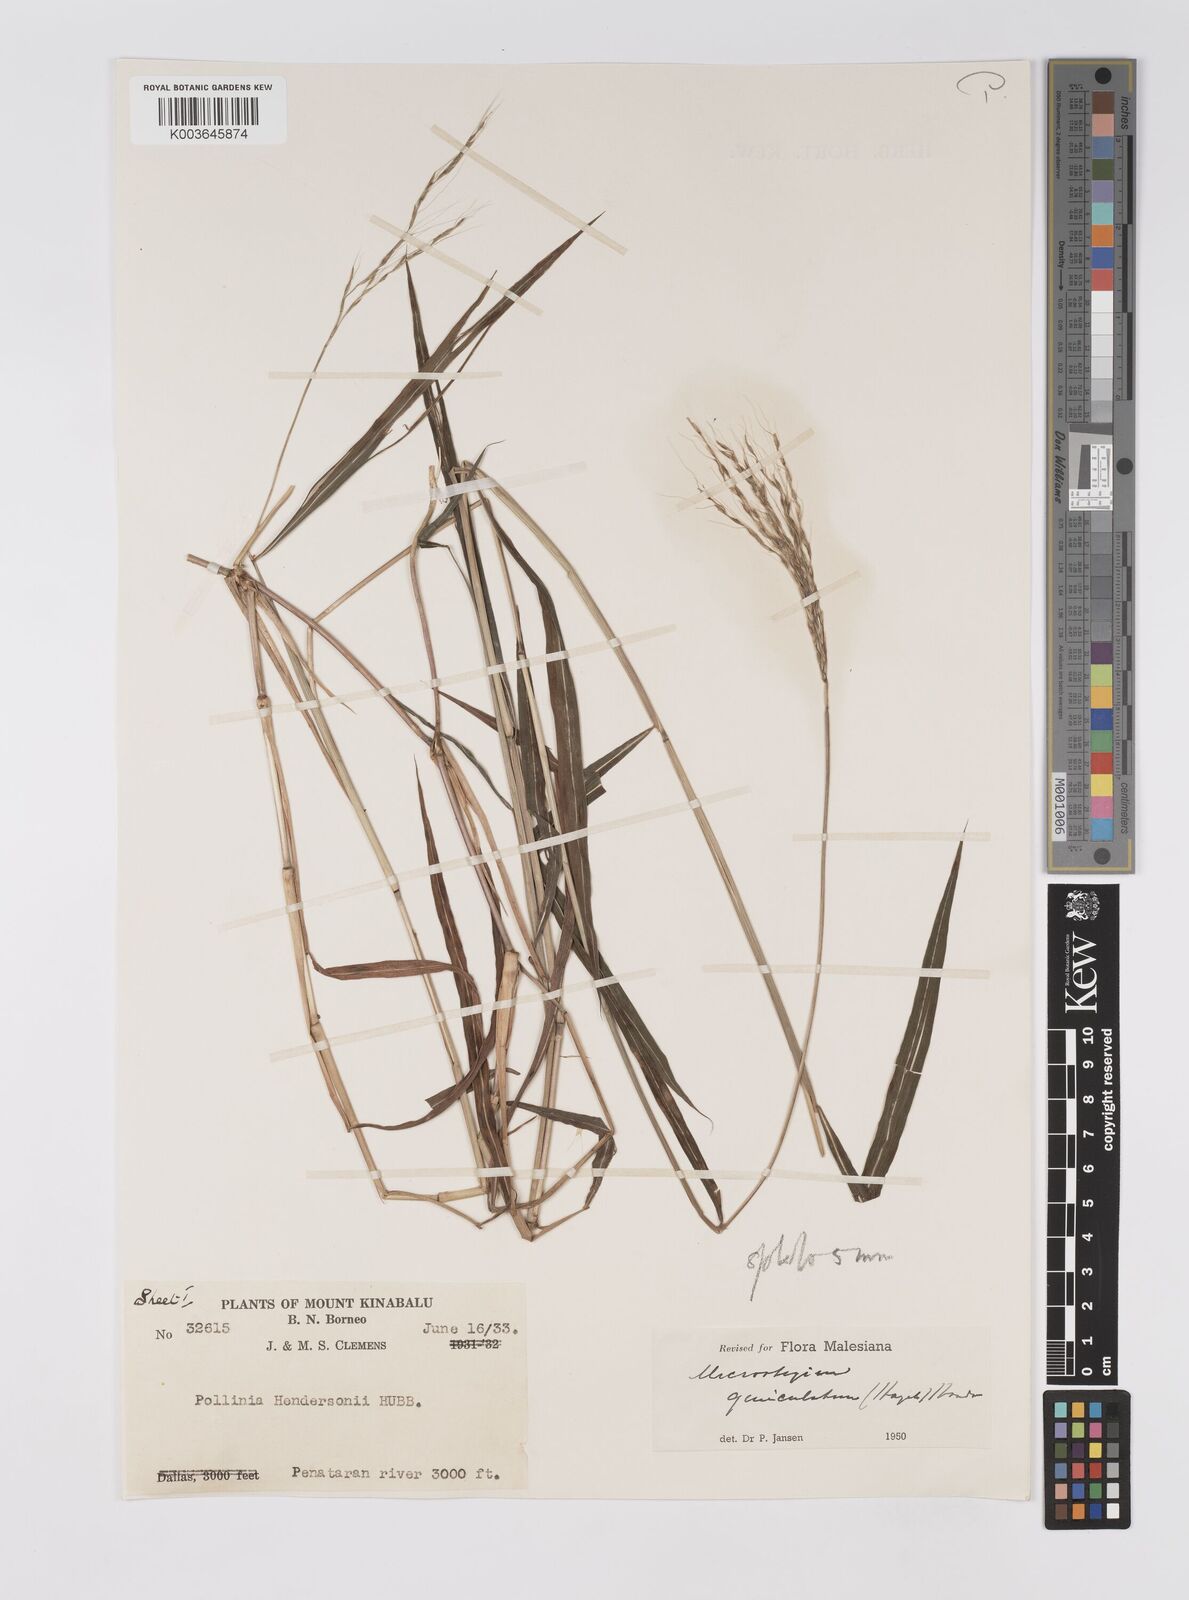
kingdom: Plantae
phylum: Tracheophyta
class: Liliopsida
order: Poales
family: Poaceae
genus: Microstegium
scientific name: Microstegium geniculatum
